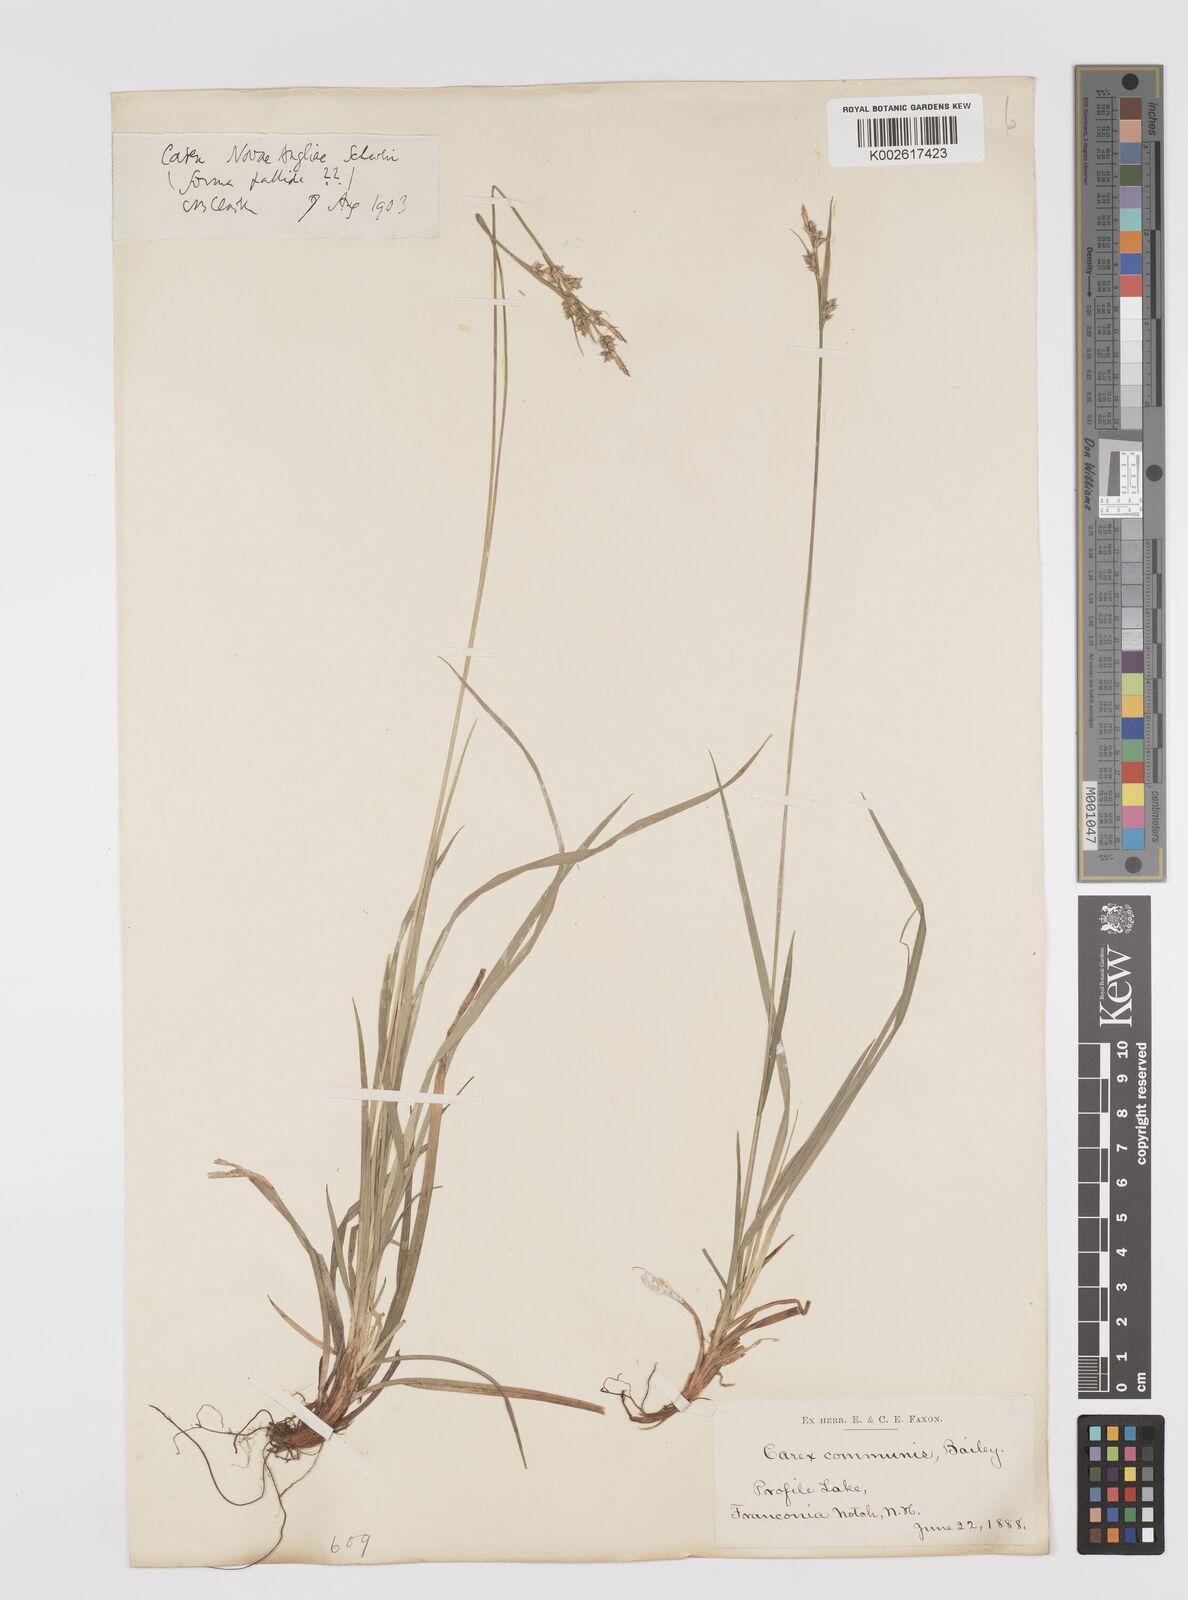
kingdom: Plantae
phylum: Tracheophyta
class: Liliopsida
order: Poales
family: Cyperaceae
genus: Carex
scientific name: Carex communis
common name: Colonial oak sedge
